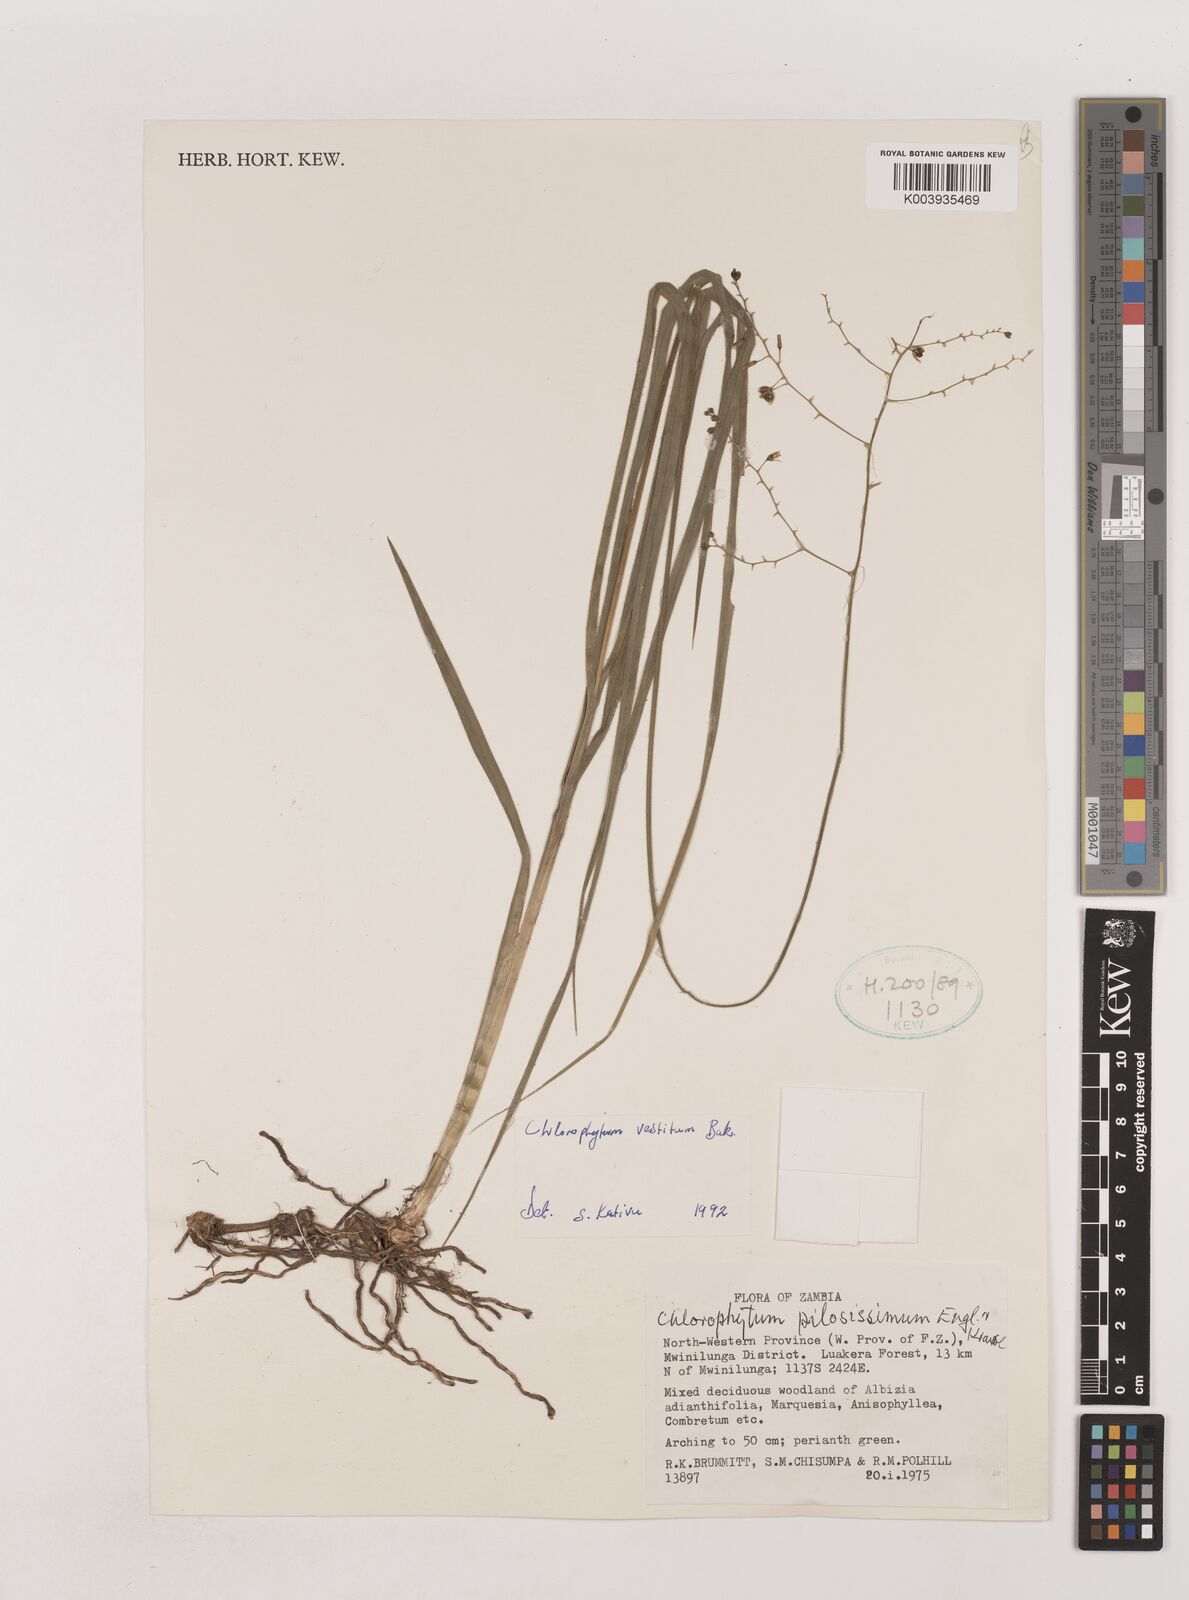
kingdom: Plantae
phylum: Tracheophyta
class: Liliopsida
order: Asparagales
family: Asparagaceae
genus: Chlorophytum
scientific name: Chlorophytum vestitum
